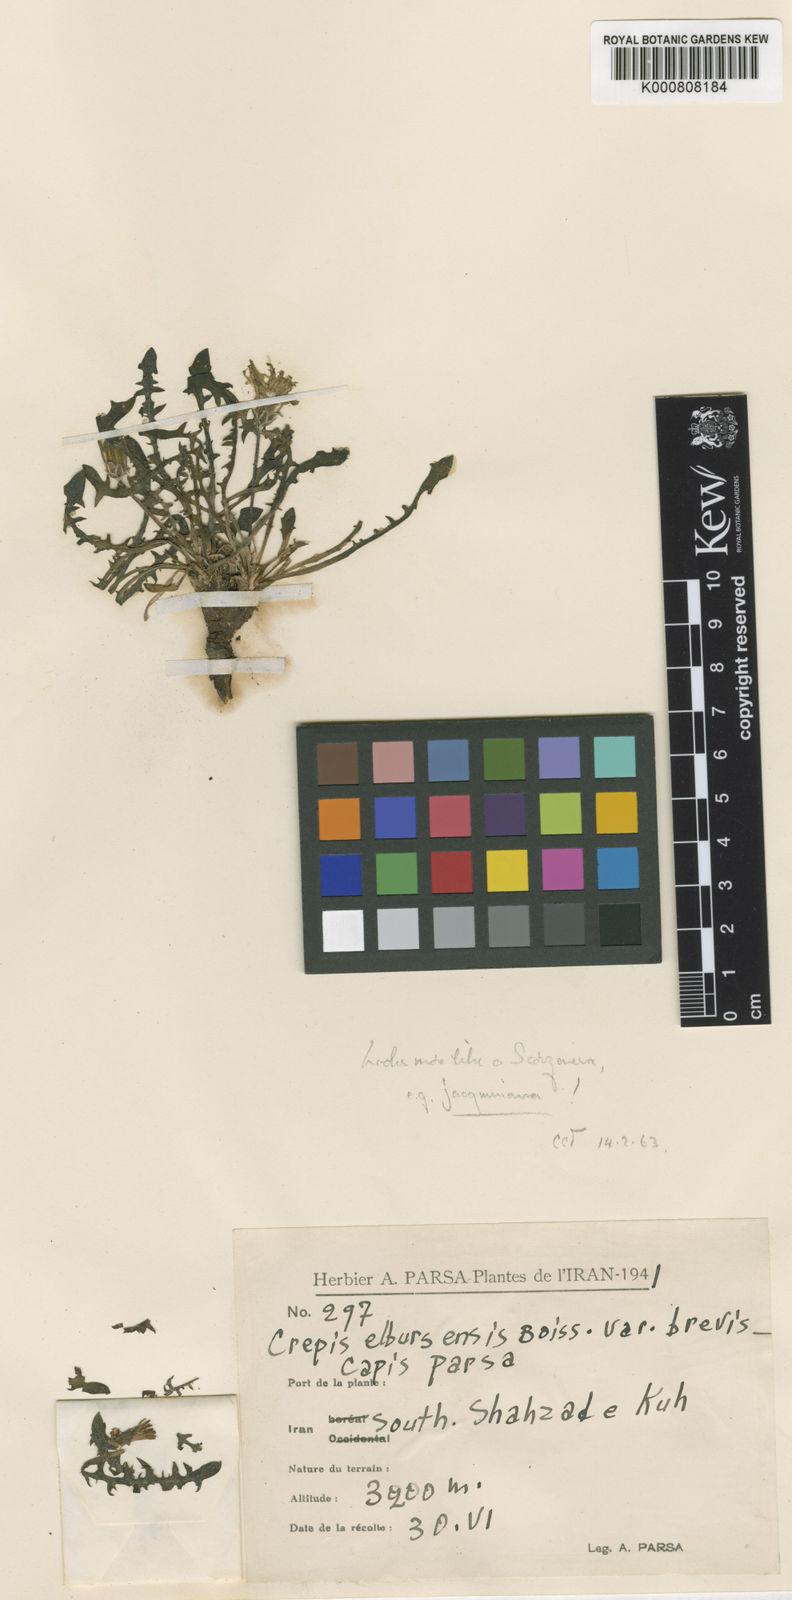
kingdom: Plantae
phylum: Tracheophyta
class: Magnoliopsida
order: Asterales
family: Asteraceae
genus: Crepis
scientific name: Crepis elbrusensis
